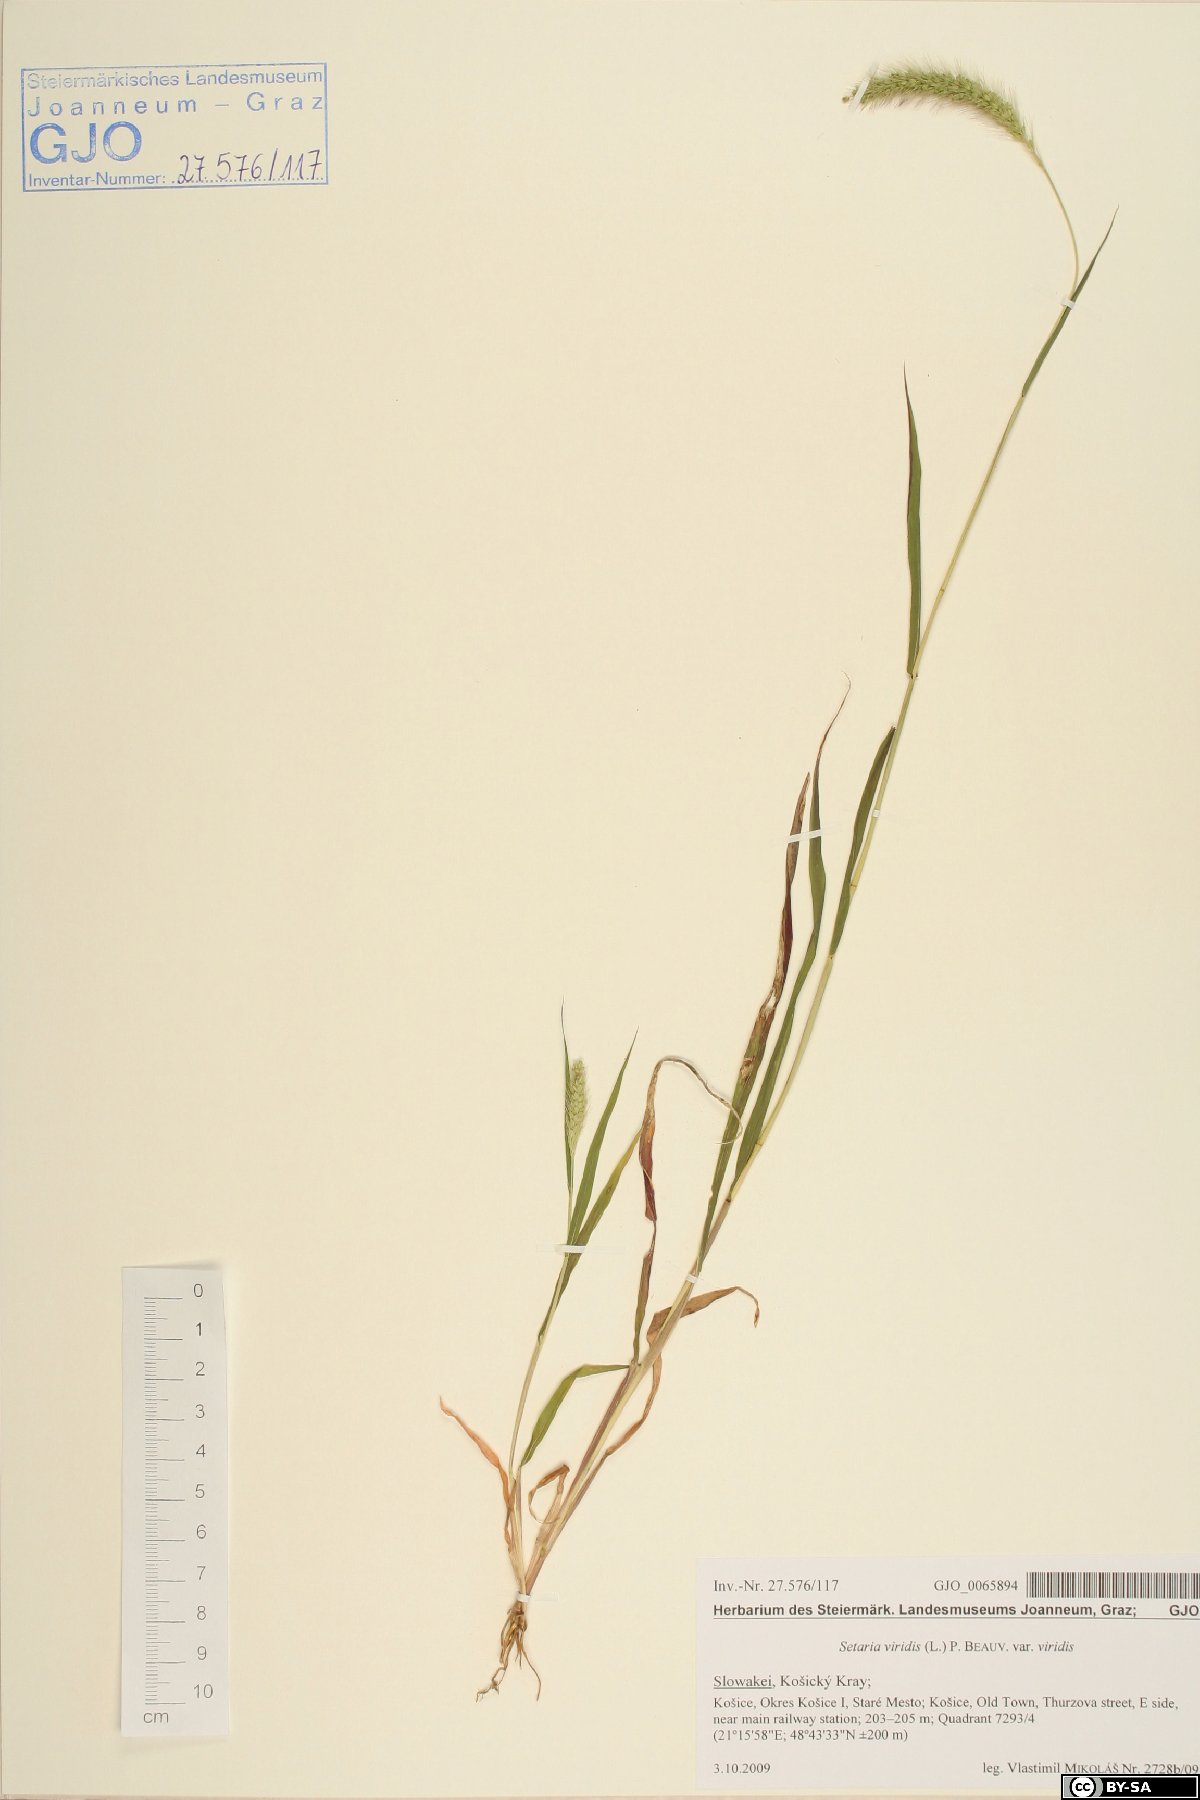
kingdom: Plantae
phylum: Tracheophyta
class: Liliopsida
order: Poales
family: Poaceae
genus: Setaria
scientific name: Setaria viridis
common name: Green bristlegrass
